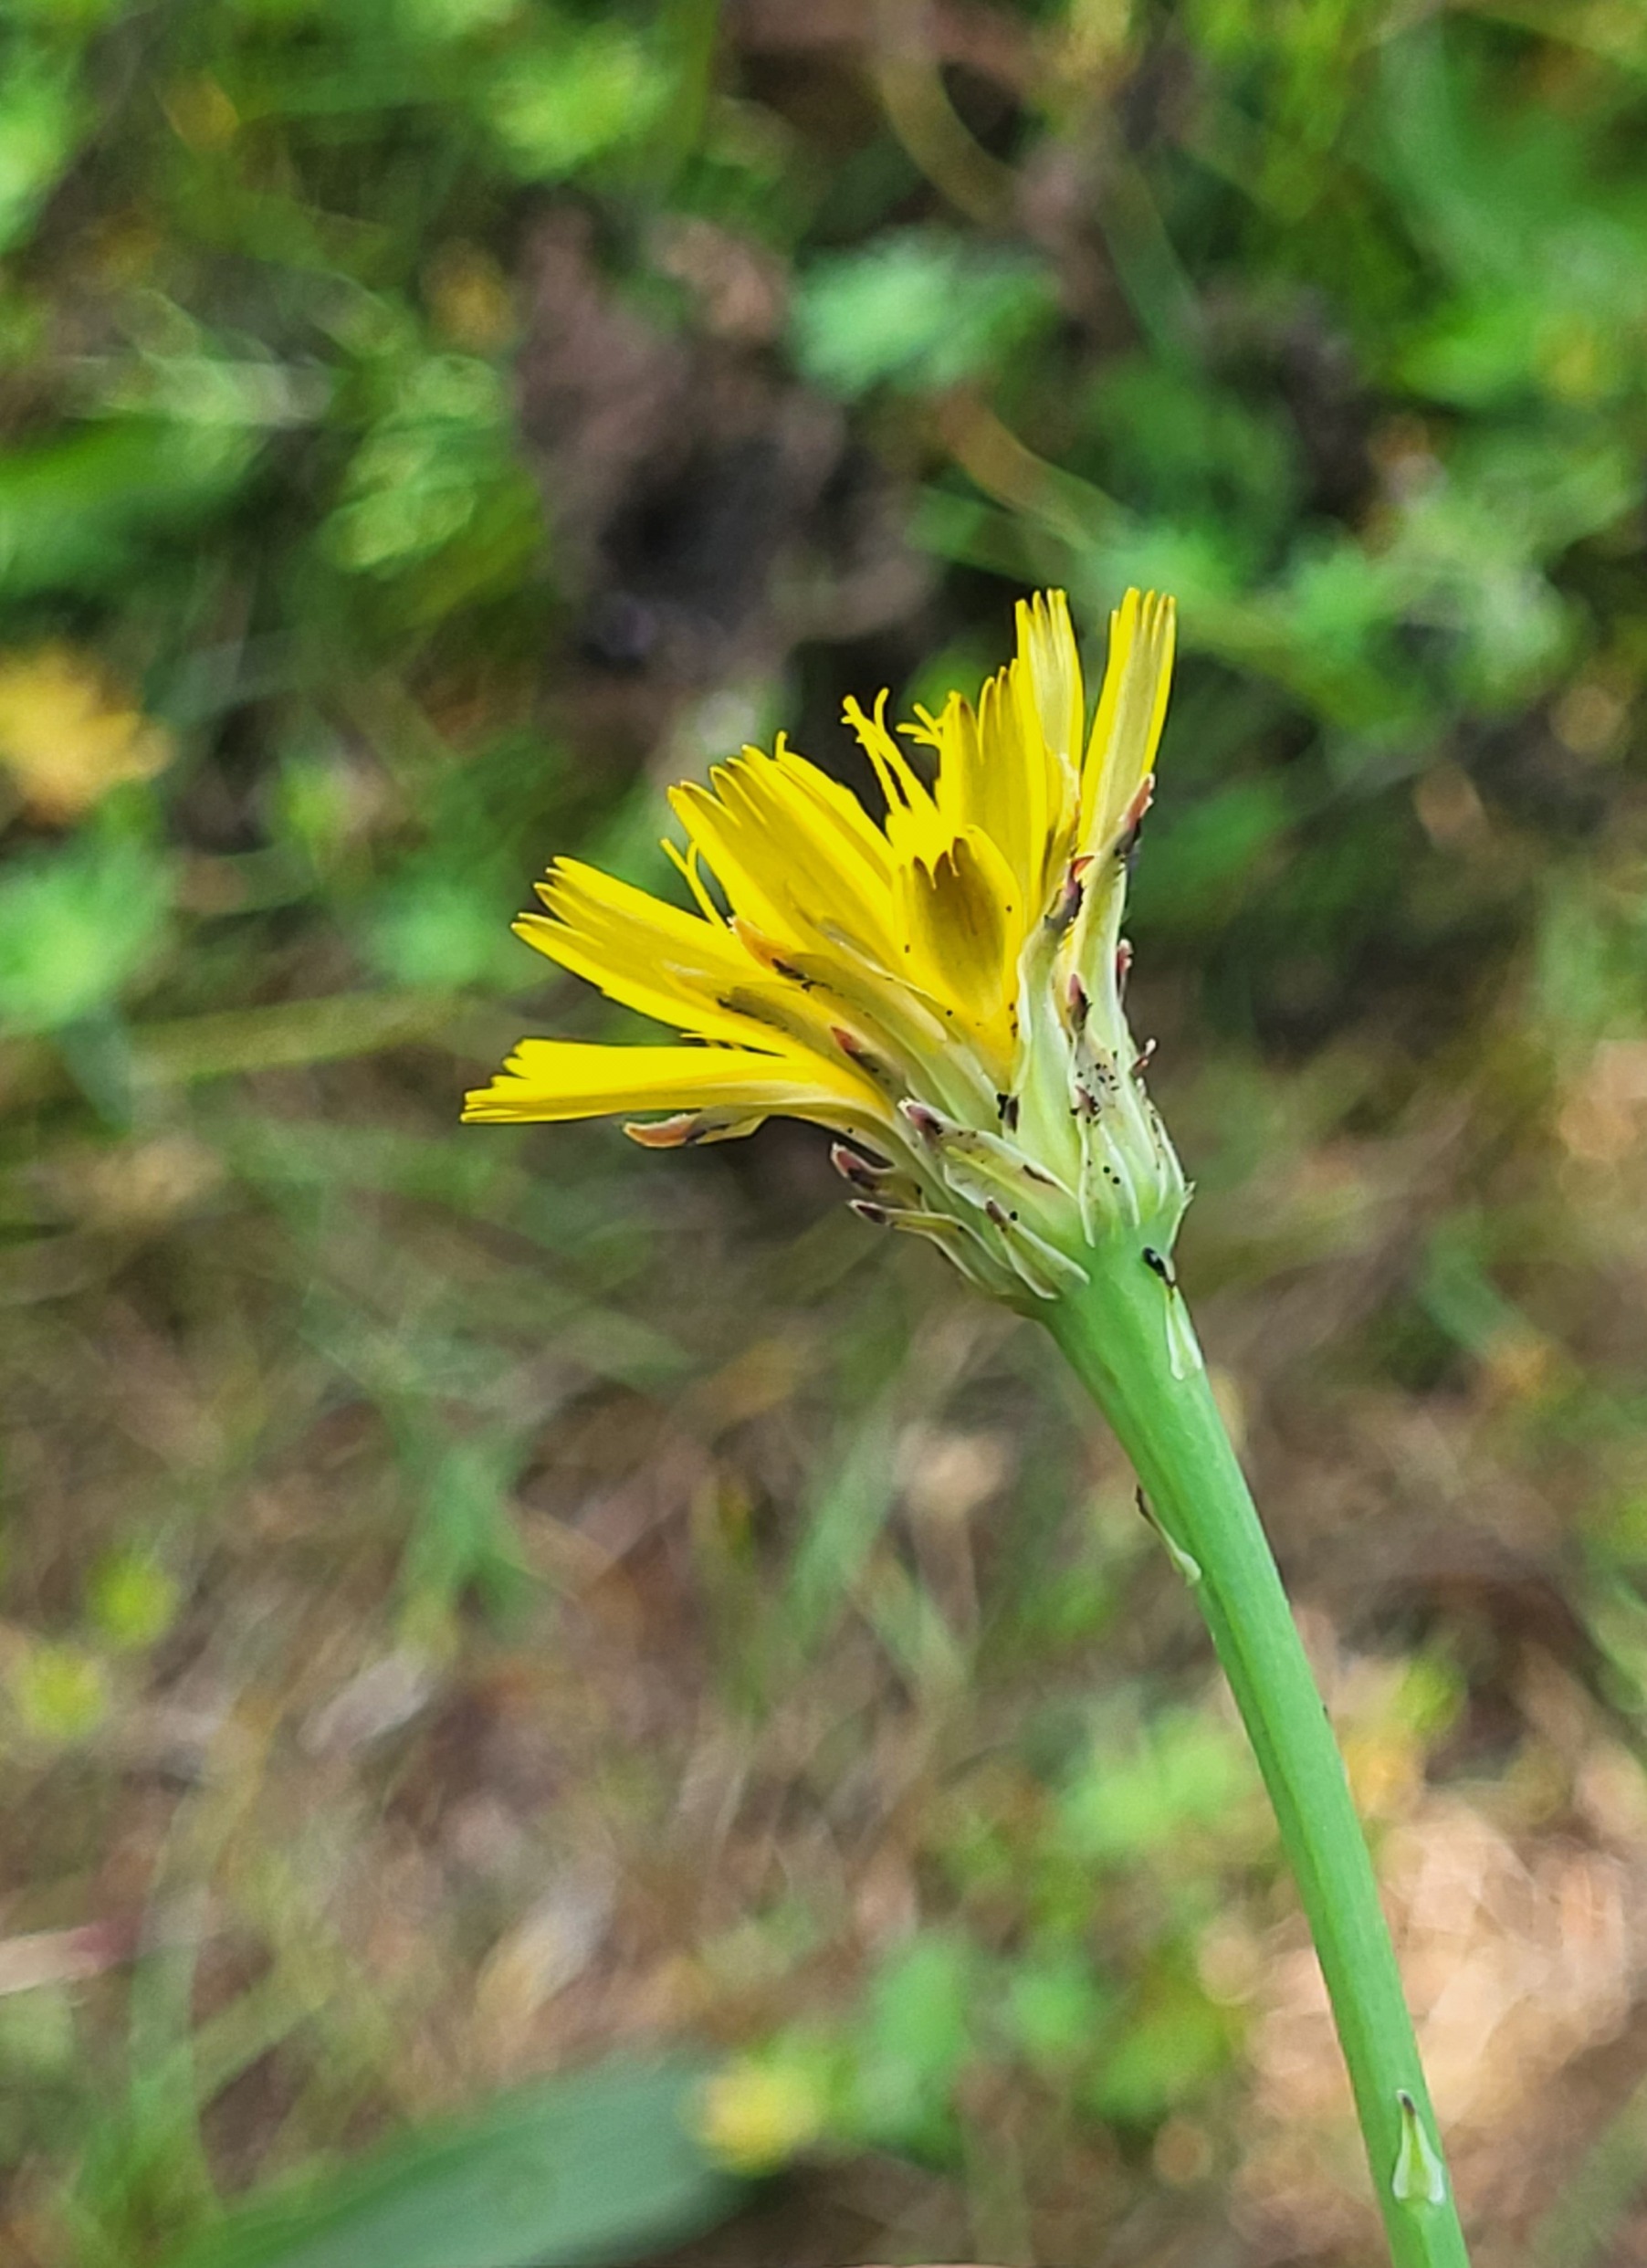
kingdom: Plantae
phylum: Tracheophyta
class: Magnoliopsida
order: Asterales
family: Asteraceae
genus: Hypochaeris
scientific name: Hypochaeris radicata
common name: Almindelig kongepen
